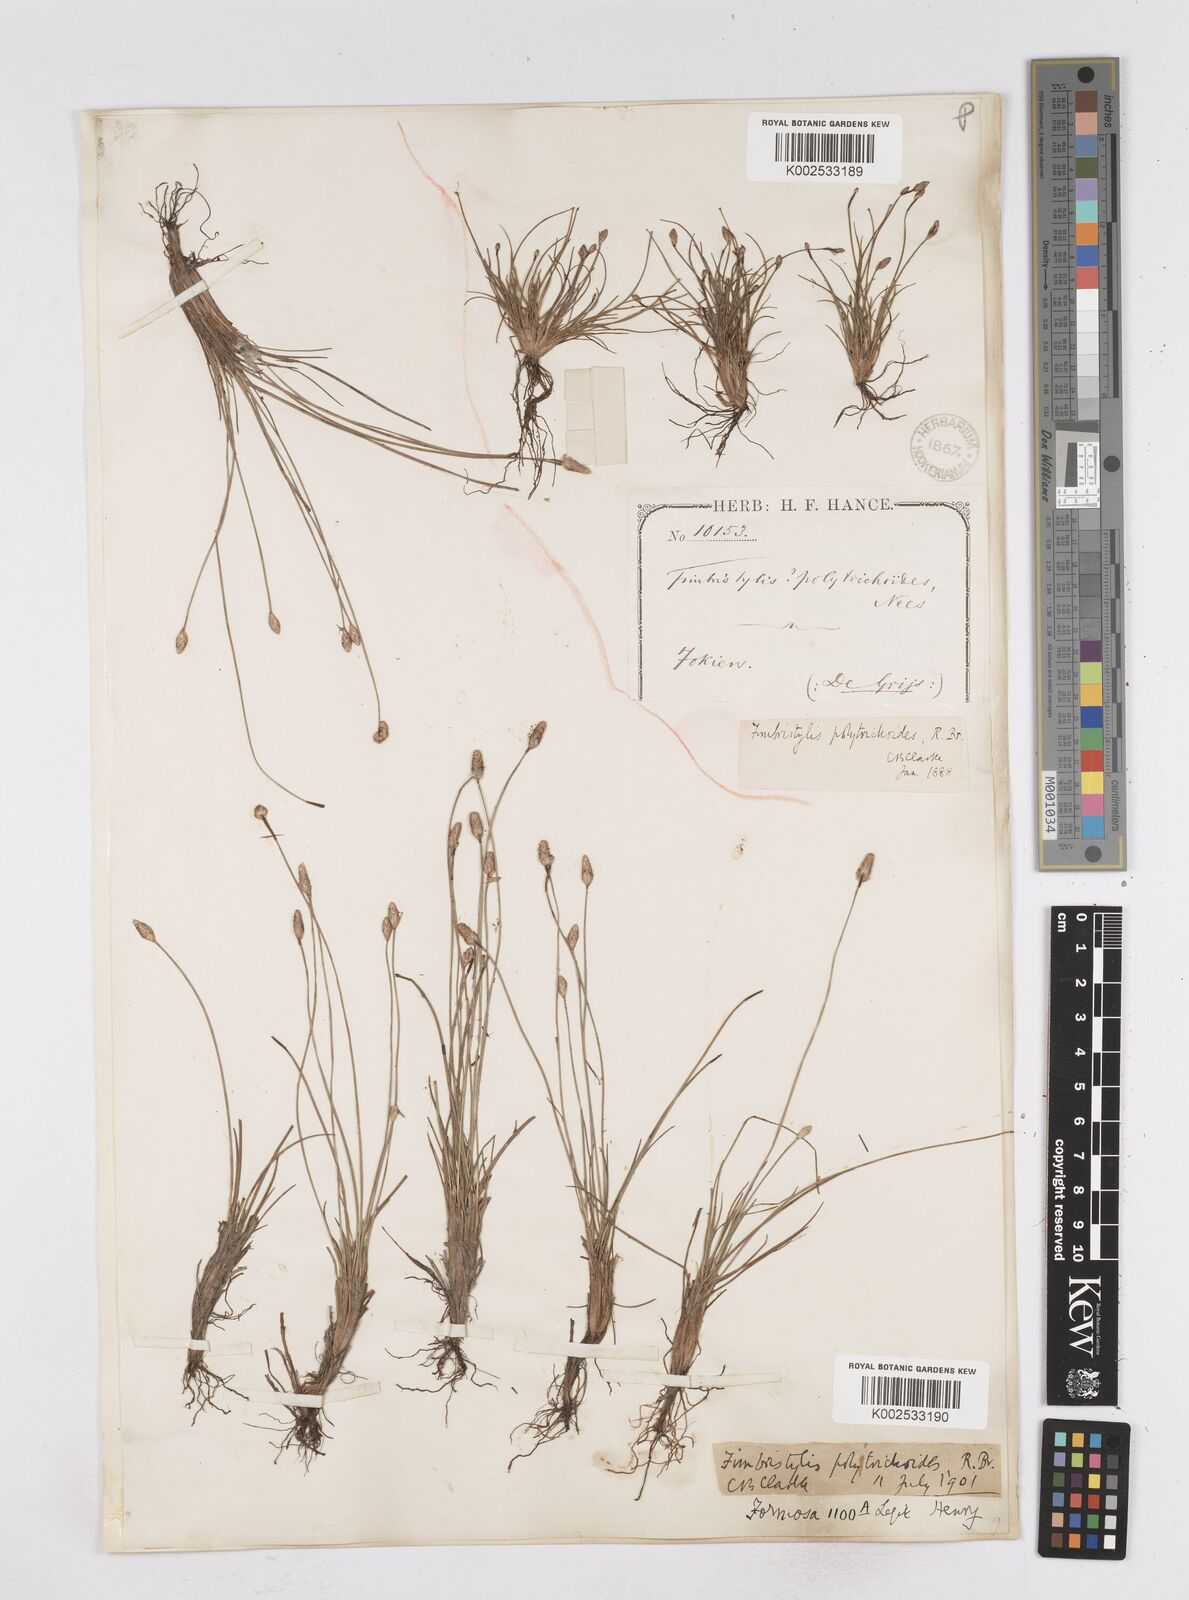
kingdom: Plantae
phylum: Tracheophyta
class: Liliopsida
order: Poales
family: Cyperaceae
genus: Fimbristylis
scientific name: Fimbristylis polytrichoides
